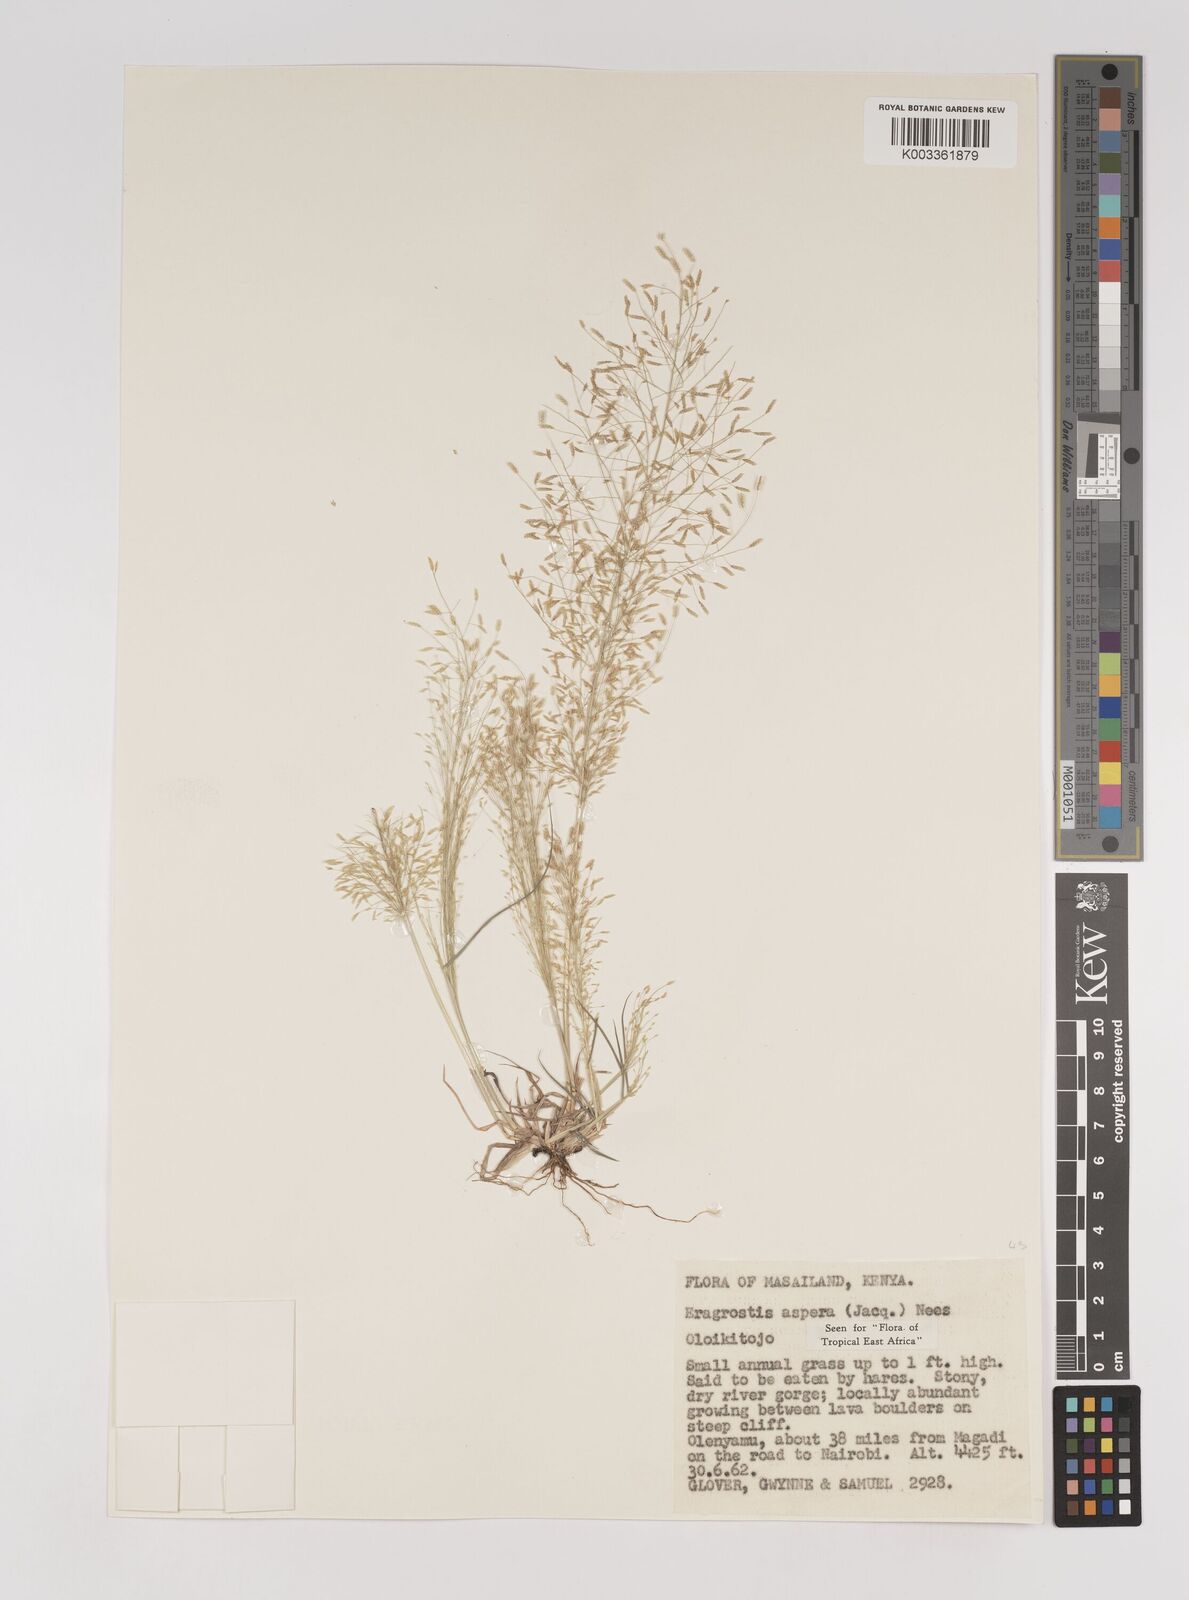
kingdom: Plantae
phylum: Tracheophyta
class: Liliopsida
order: Poales
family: Poaceae
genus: Eragrostis
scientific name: Eragrostis aspera
